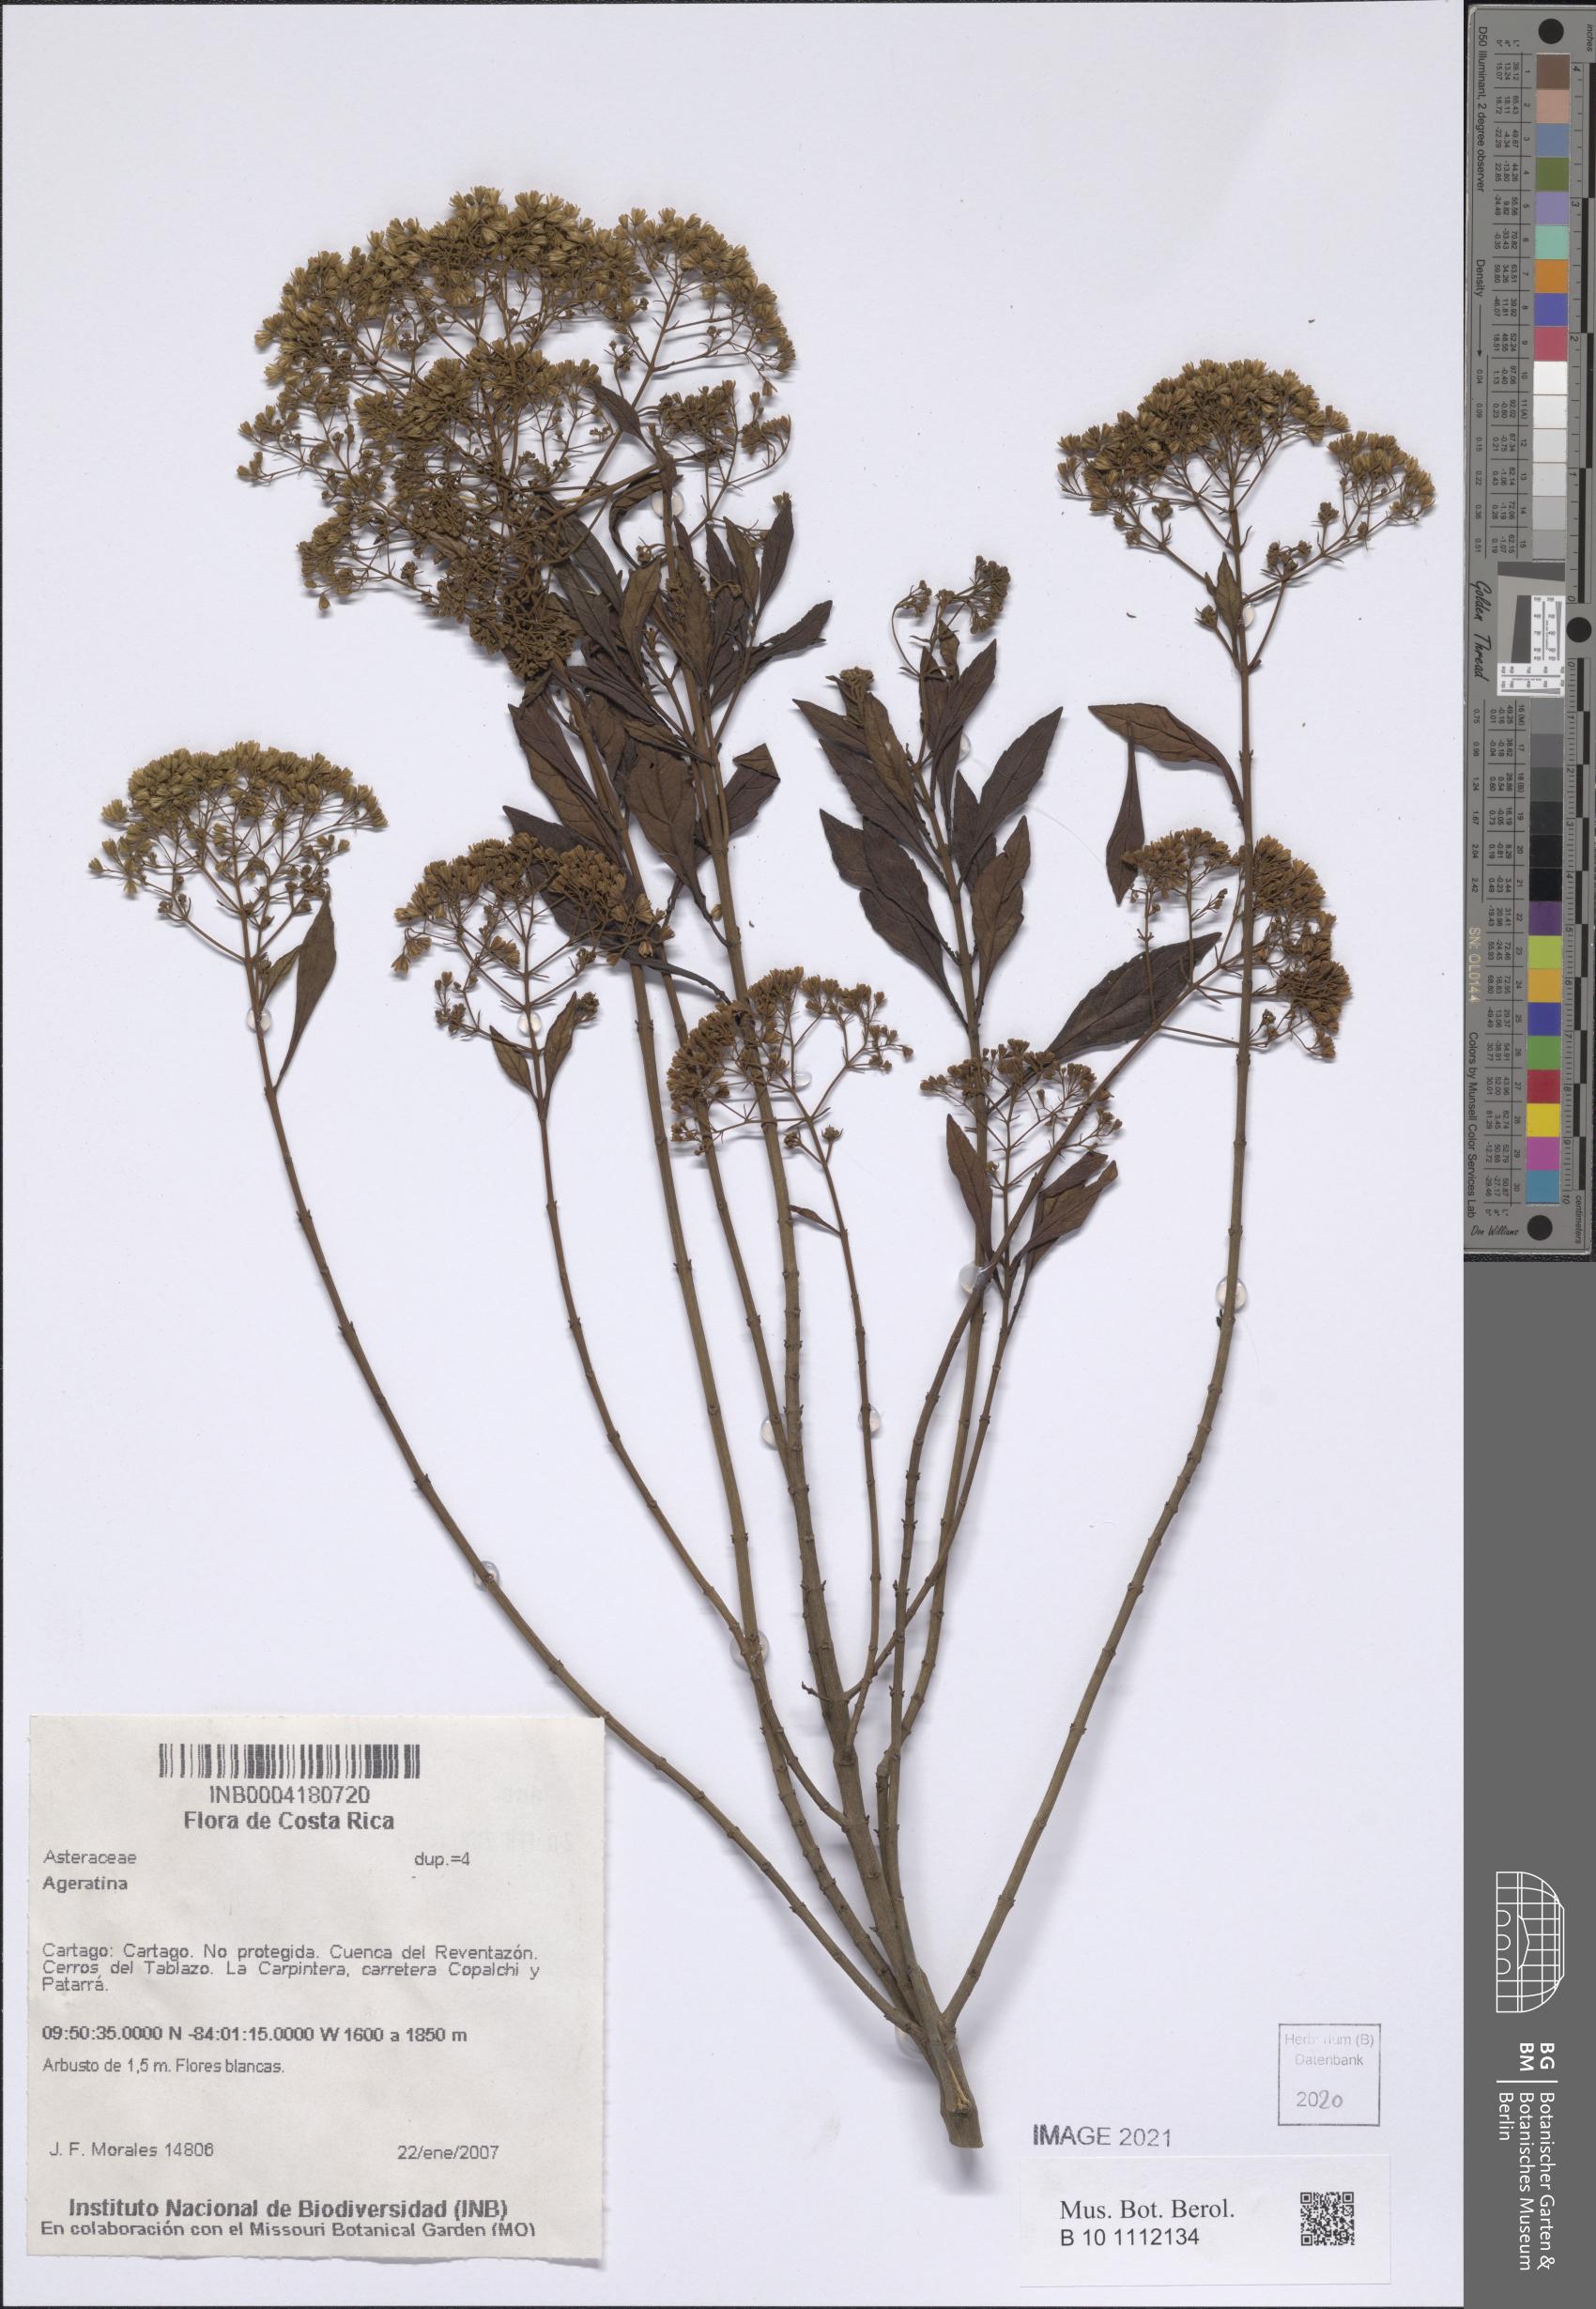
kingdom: Plantae
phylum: Tracheophyta
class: Magnoliopsida
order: Asterales
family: Asteraceae
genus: Ageratina
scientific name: Ageratina
